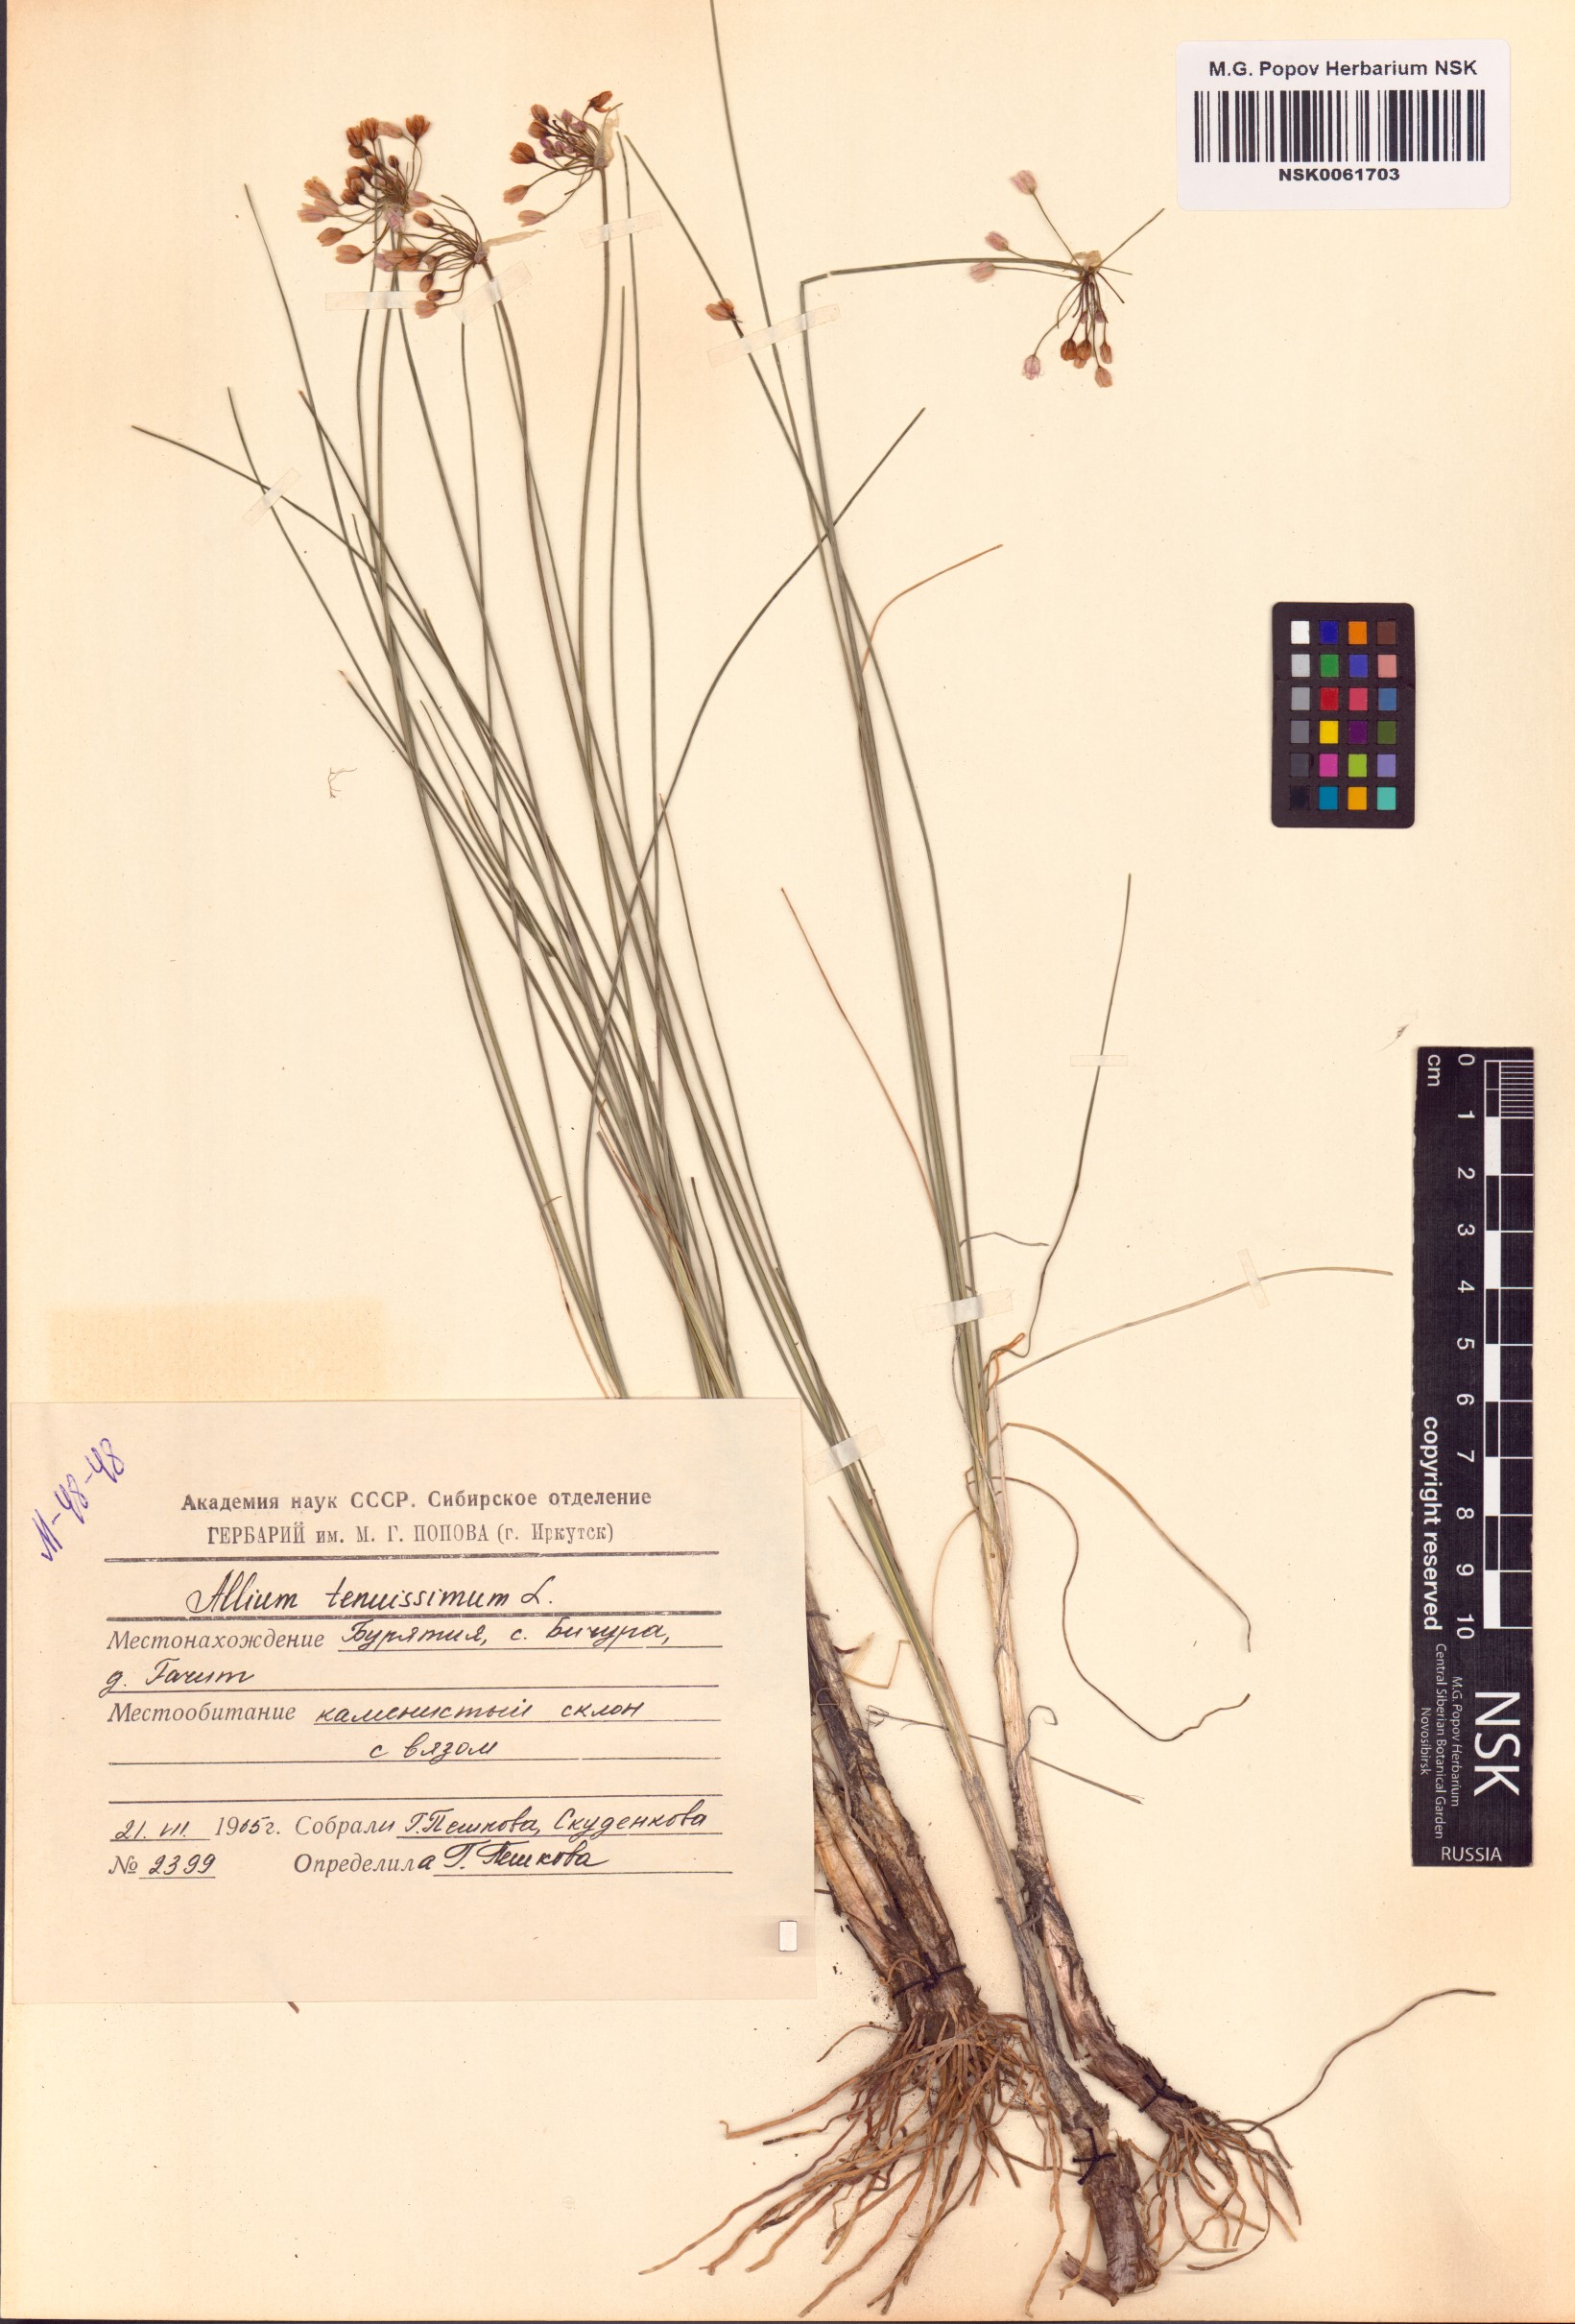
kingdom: Plantae
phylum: Tracheophyta
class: Liliopsida
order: Asparagales
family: Amaryllidaceae
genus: Allium
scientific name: Allium tenuissimum
